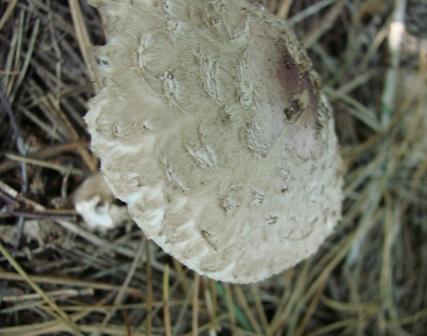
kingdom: Fungi
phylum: Basidiomycota
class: Agaricomycetes
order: Agaricales
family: Agaricaceae
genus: Chlorophyllum
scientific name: Chlorophyllum olivieri
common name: almindelig rabarberhat
